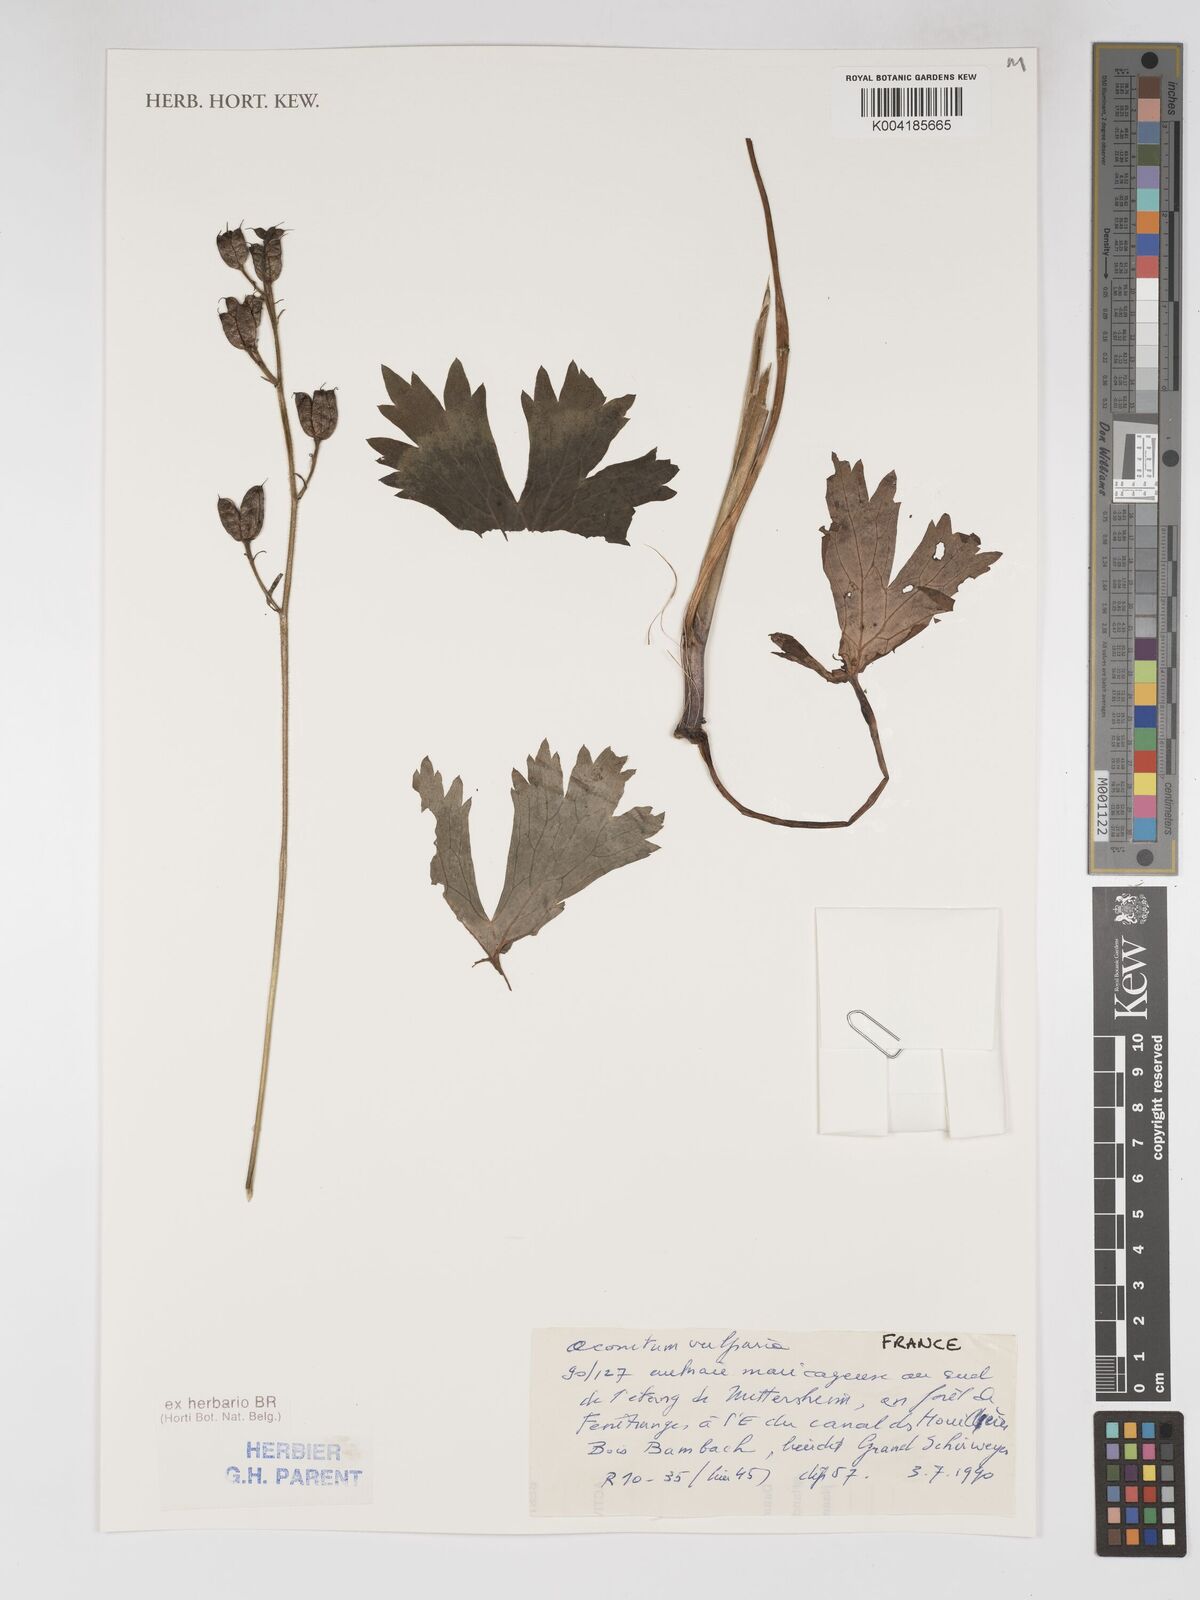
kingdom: Plantae
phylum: Tracheophyta
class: Magnoliopsida
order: Ranunculales
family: Ranunculaceae
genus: Aconitum
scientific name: Aconitum lycoctonum
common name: Wolf's-bane
